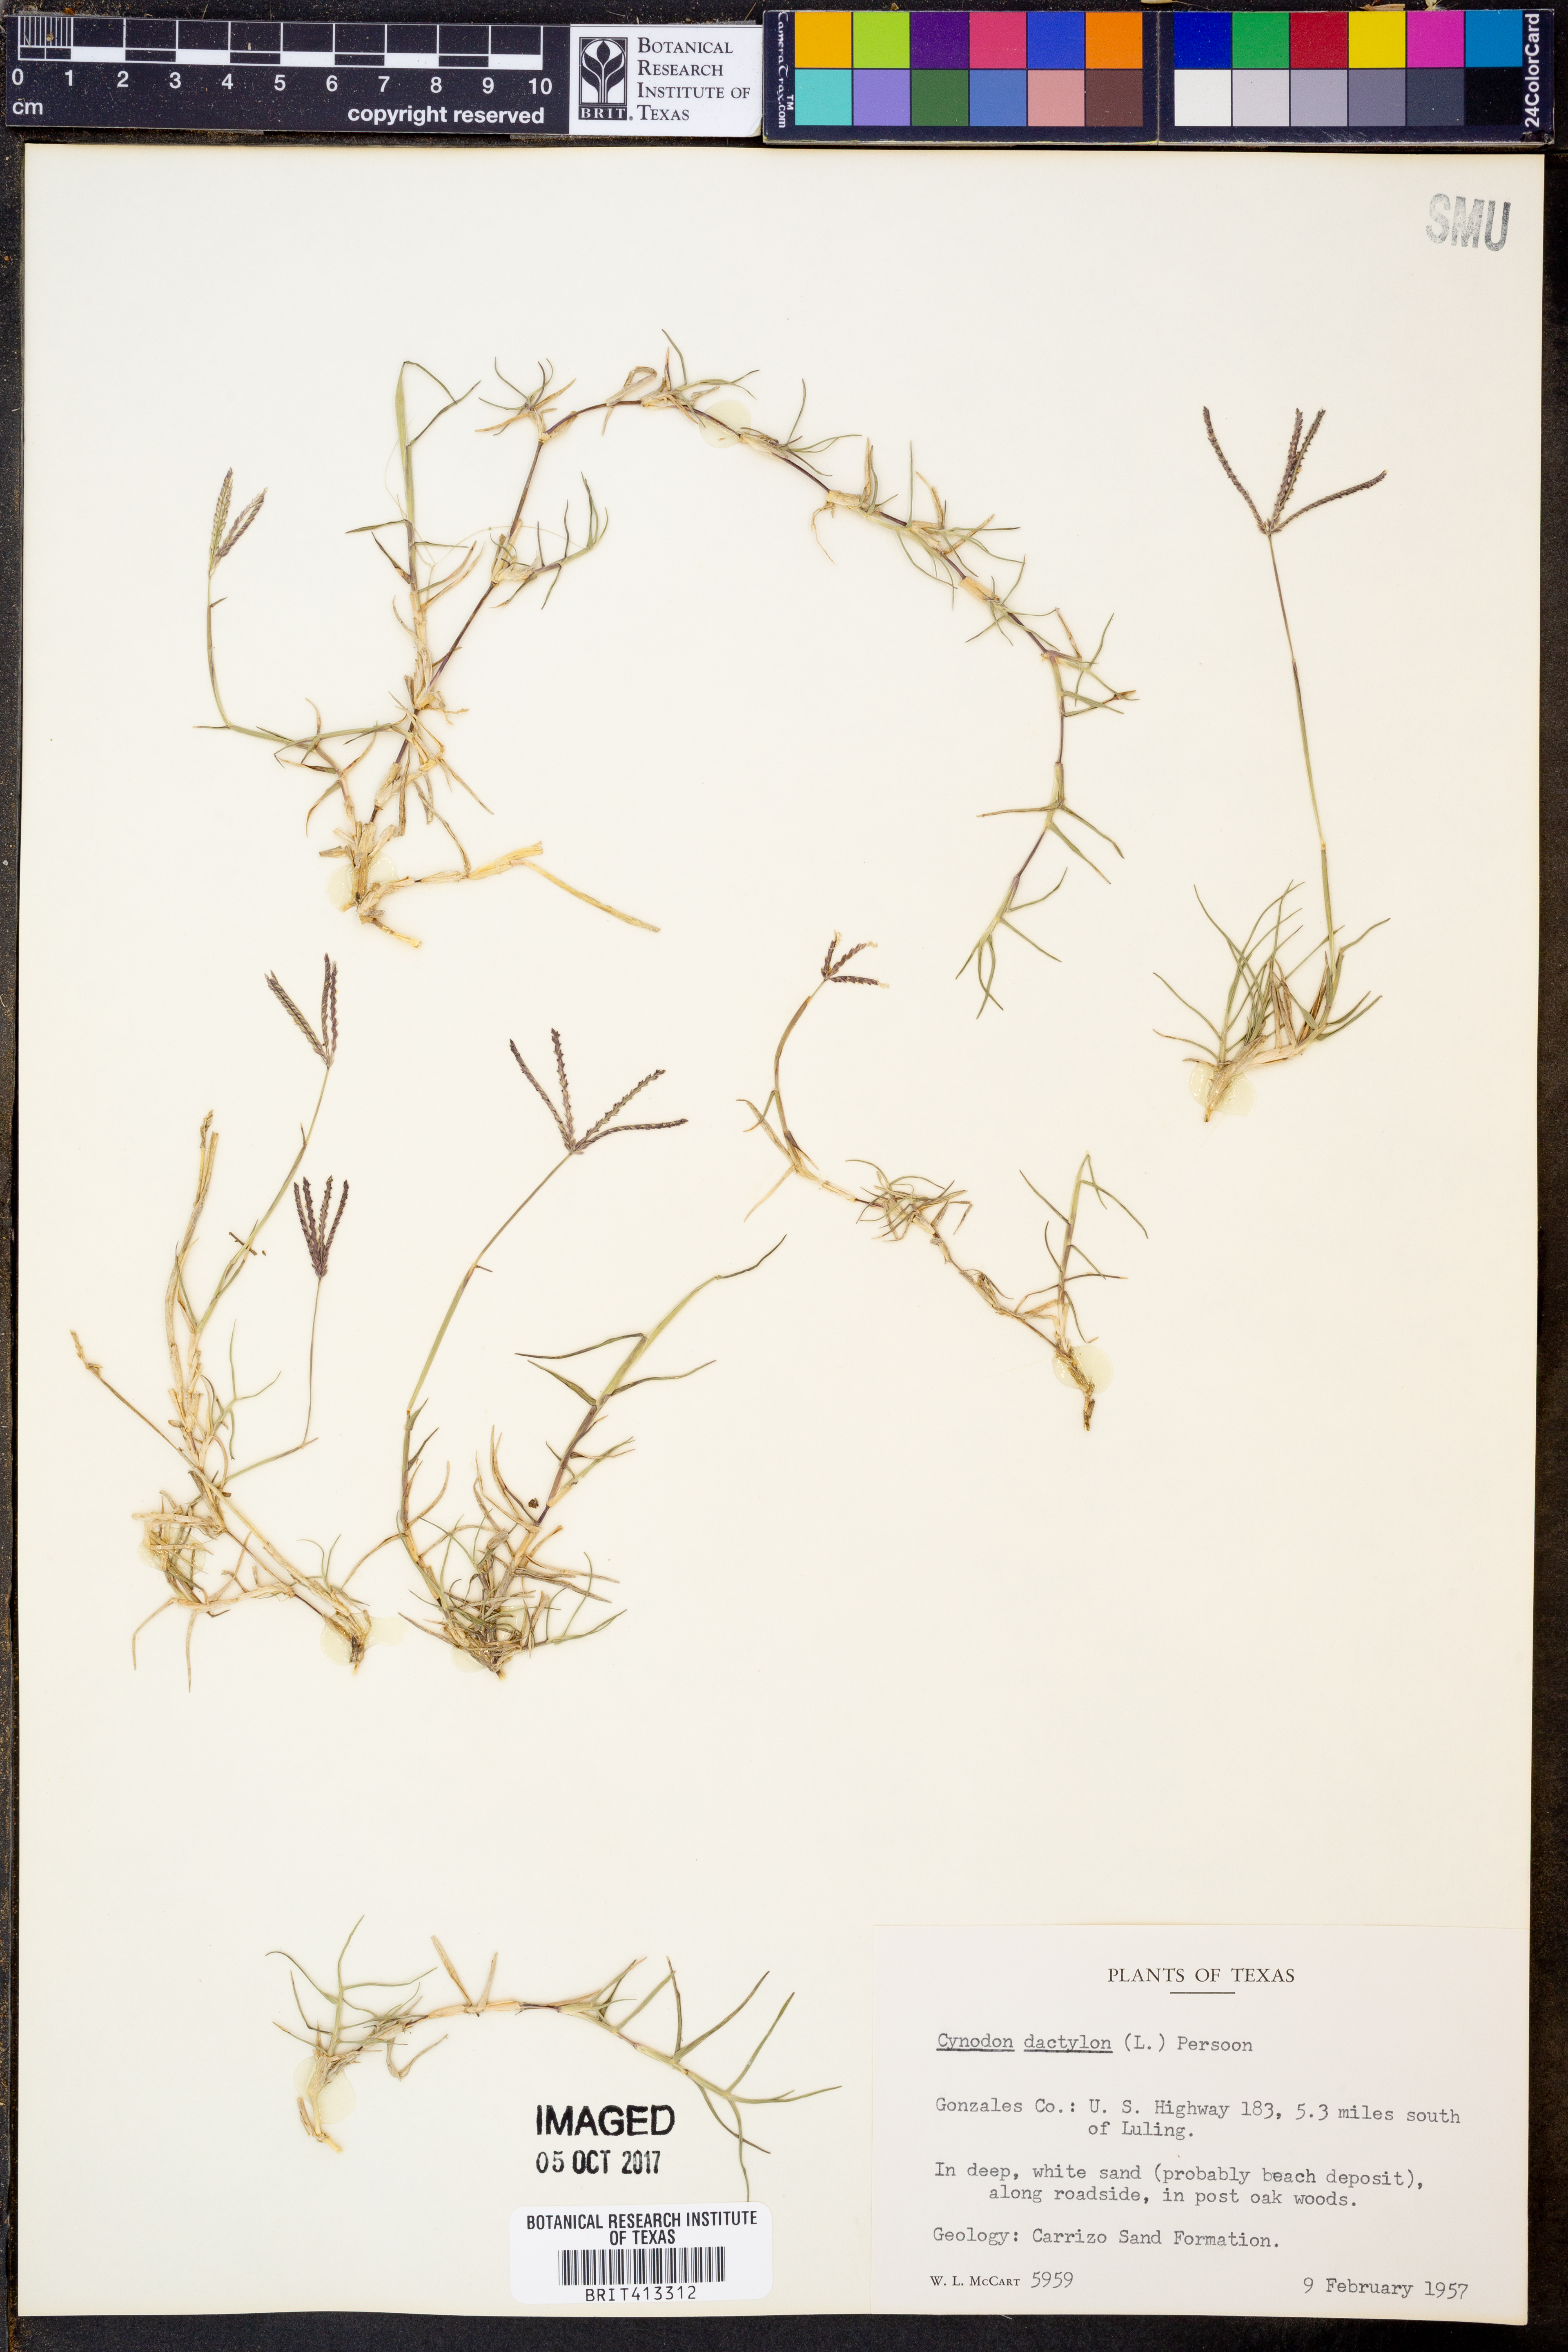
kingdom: Plantae
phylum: Tracheophyta
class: Liliopsida
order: Poales
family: Poaceae
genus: Cynodon
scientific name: Cynodon dactylon
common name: Bermuda grass
